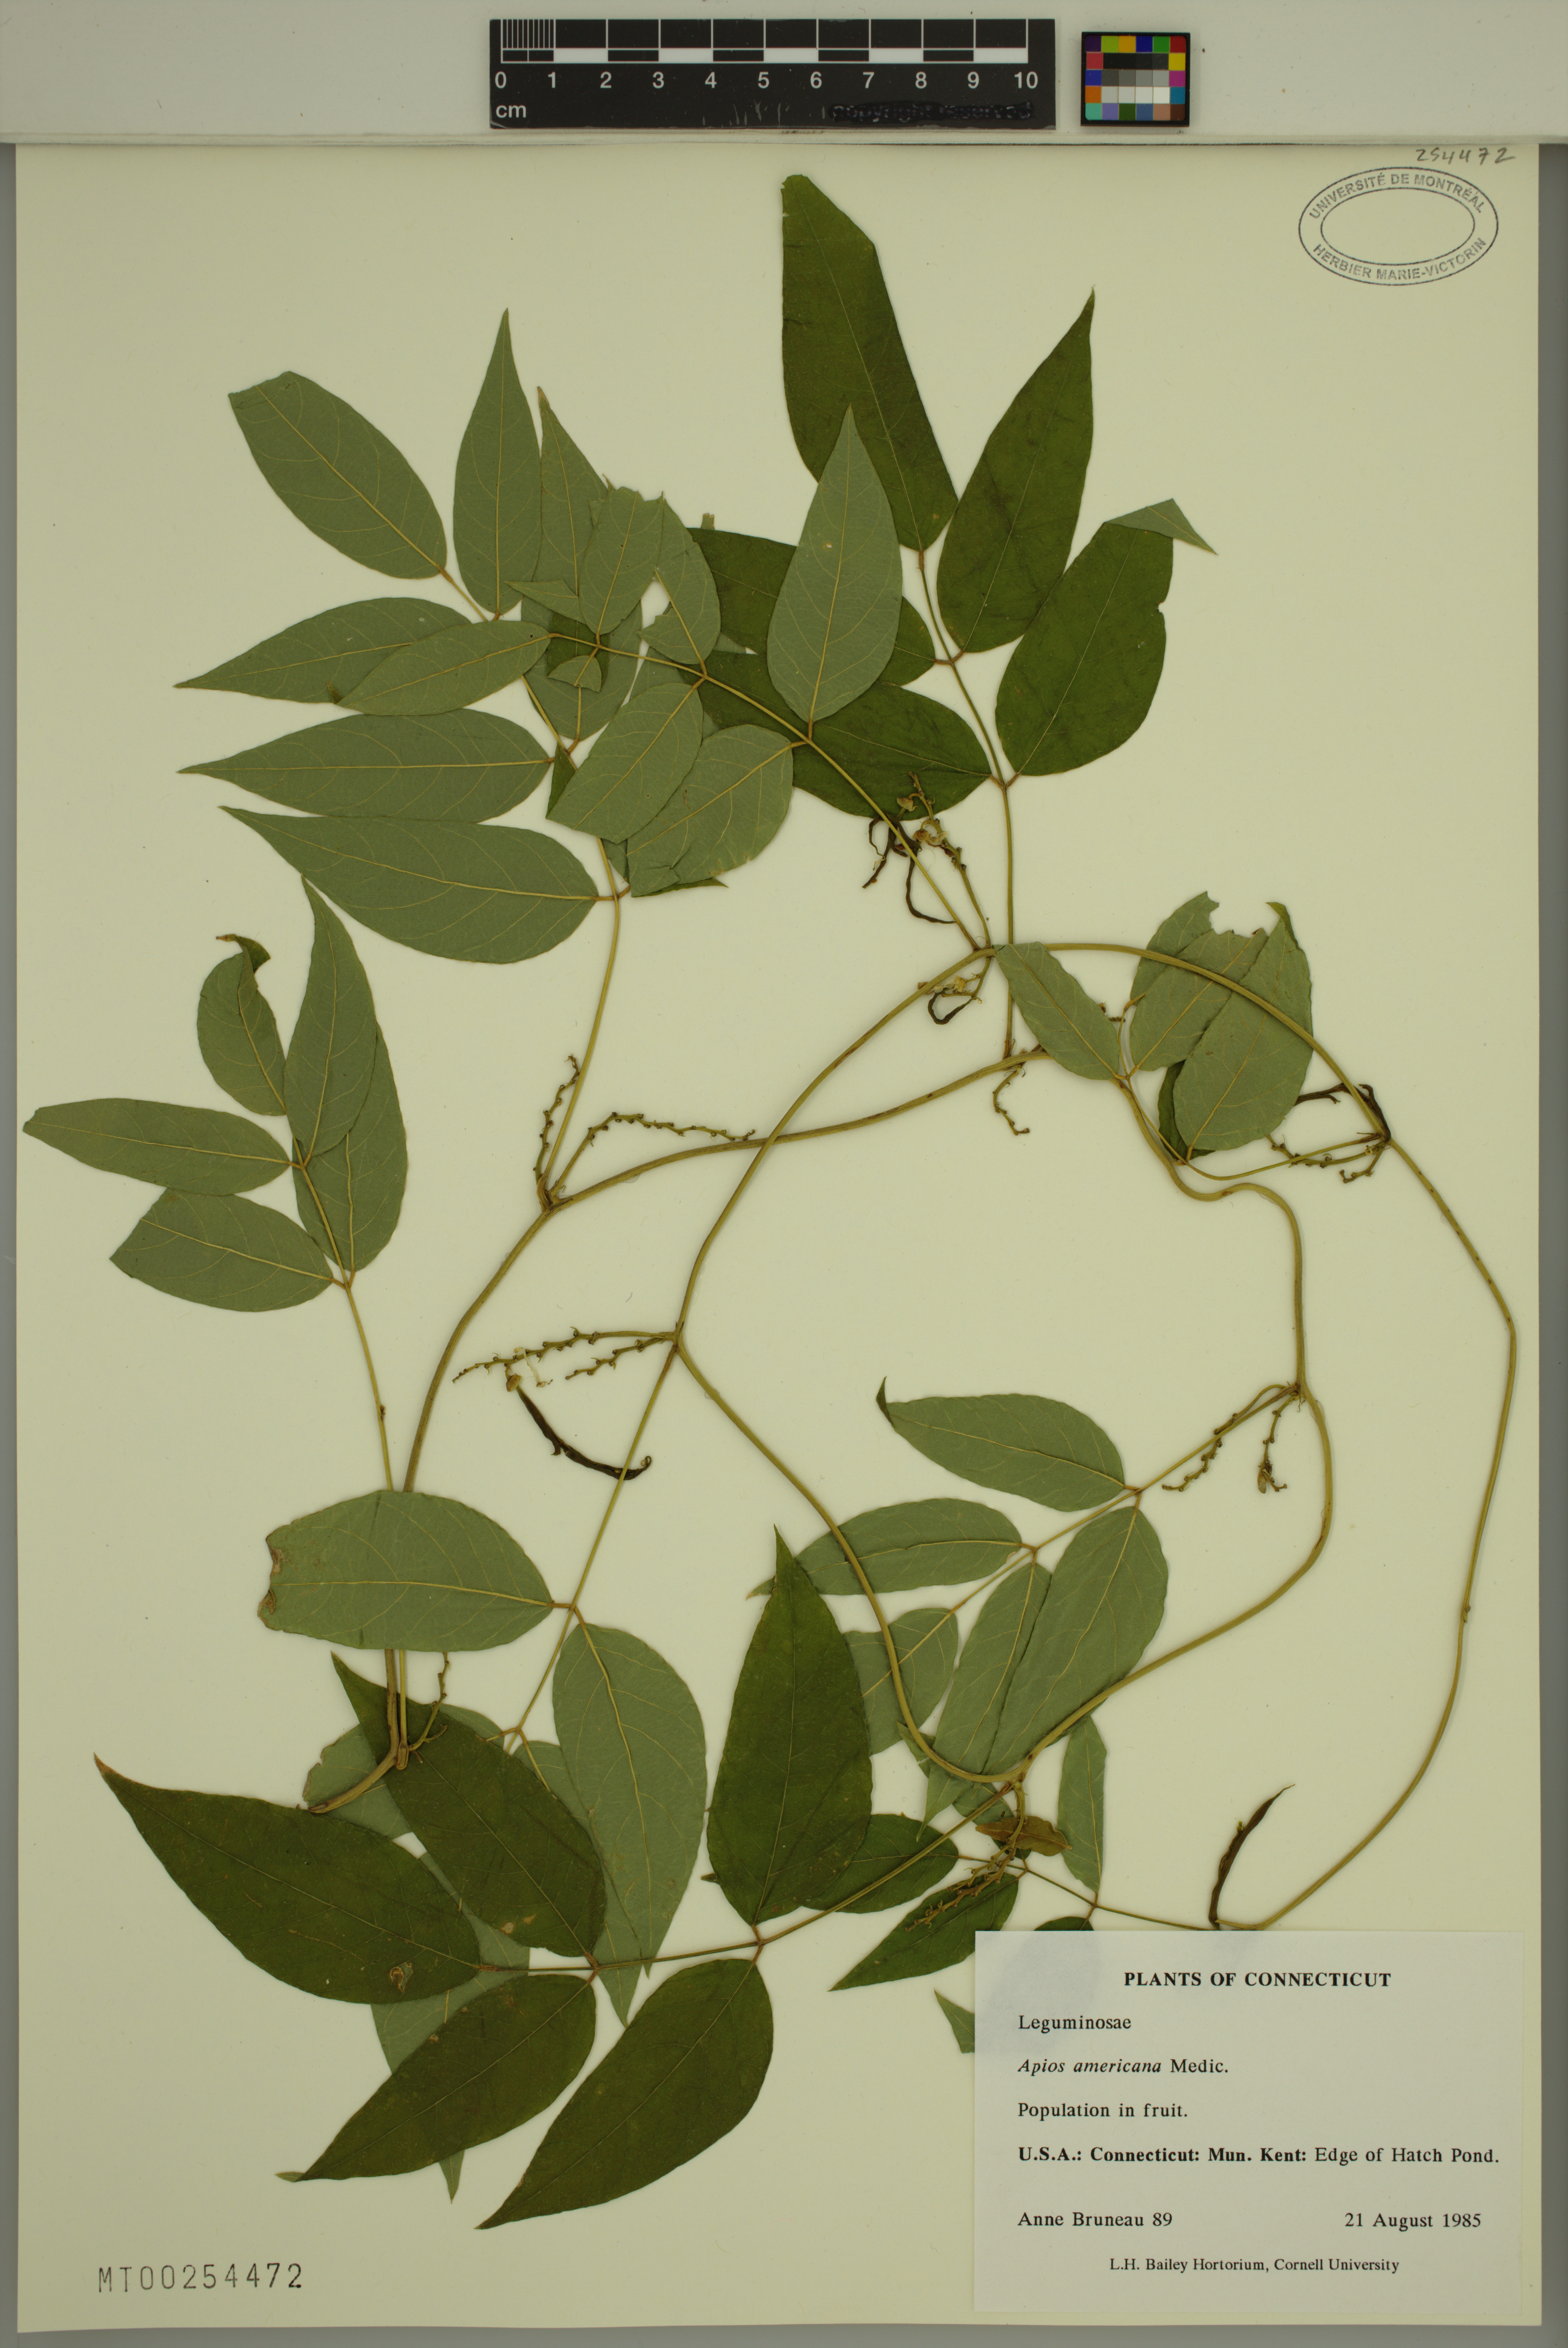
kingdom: Plantae
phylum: Tracheophyta
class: Magnoliopsida
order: Fabales
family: Fabaceae
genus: Apios
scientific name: Apios americana
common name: American potato-bean
